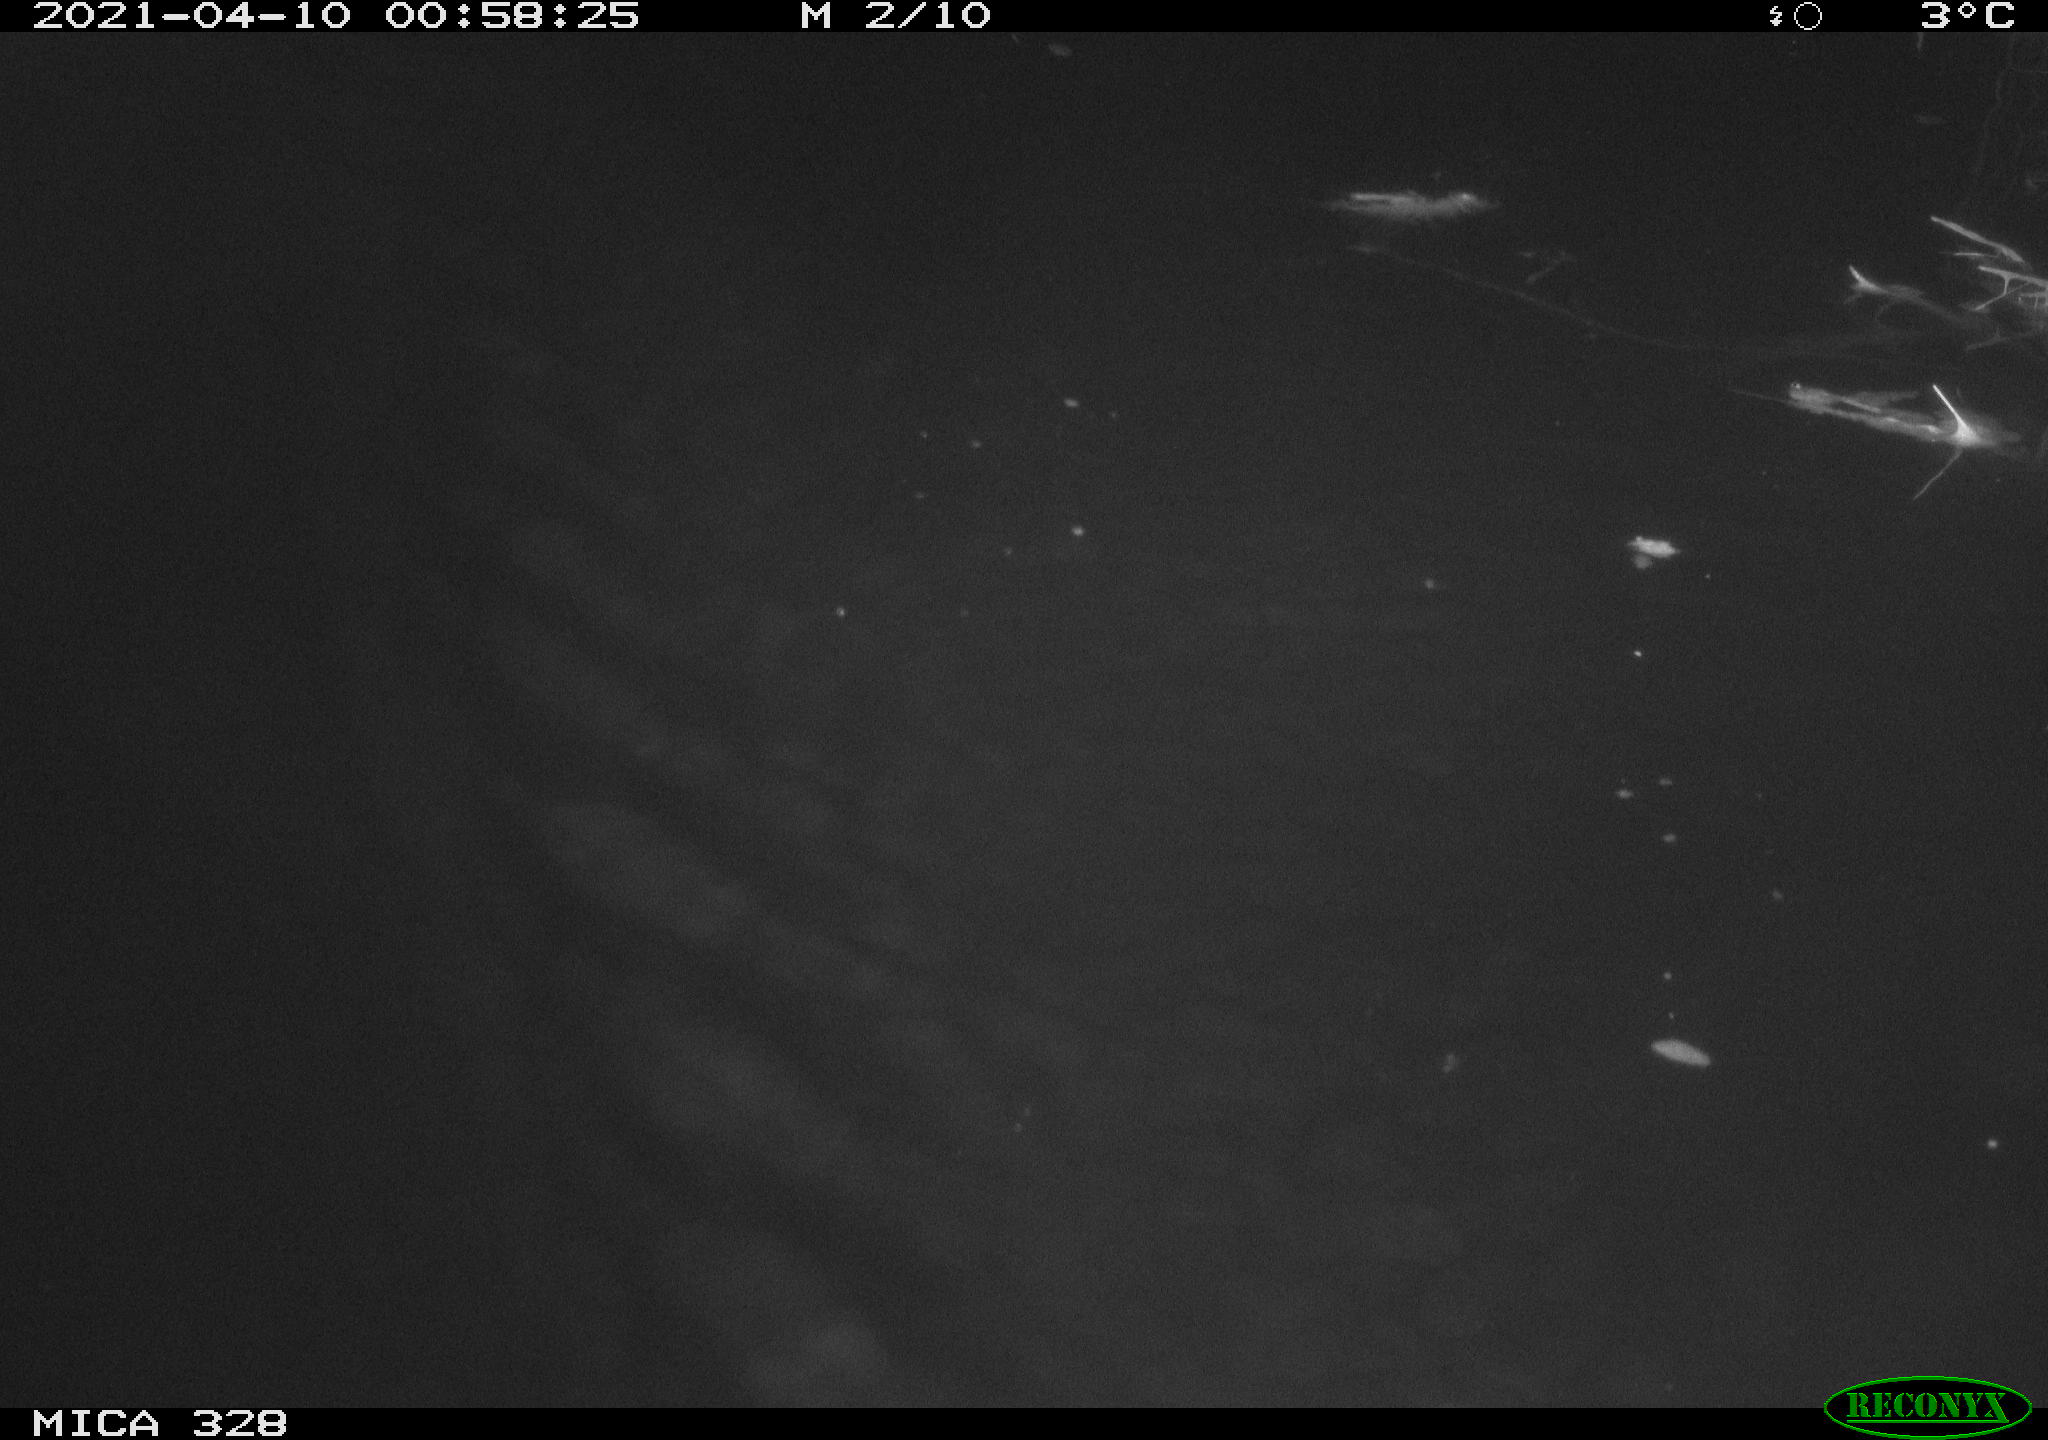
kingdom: Animalia
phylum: Chordata
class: Mammalia
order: Rodentia
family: Cricetidae
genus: Ondatra
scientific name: Ondatra zibethicus
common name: Muskrat
